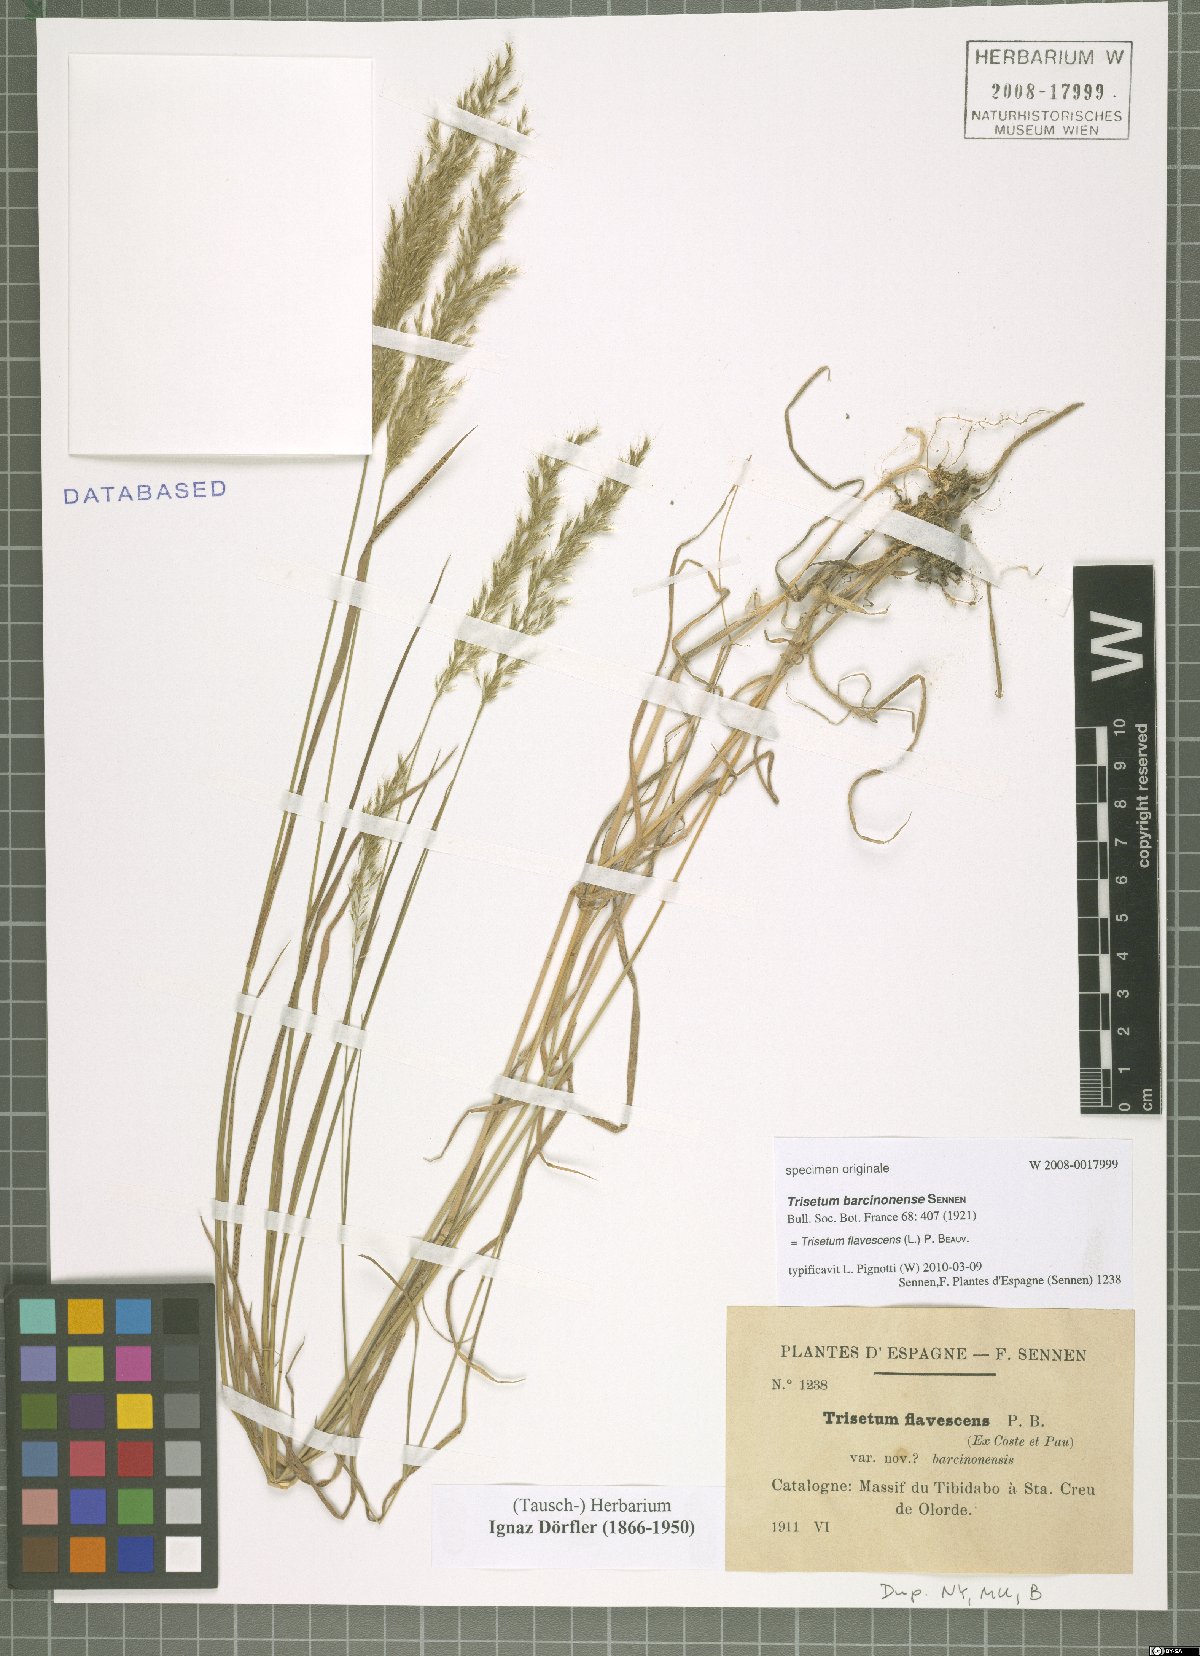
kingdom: Plantae
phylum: Tracheophyta
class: Liliopsida
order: Poales
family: Poaceae
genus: Trisetum
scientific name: Trisetum flavescens
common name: Yellow oat-grass
